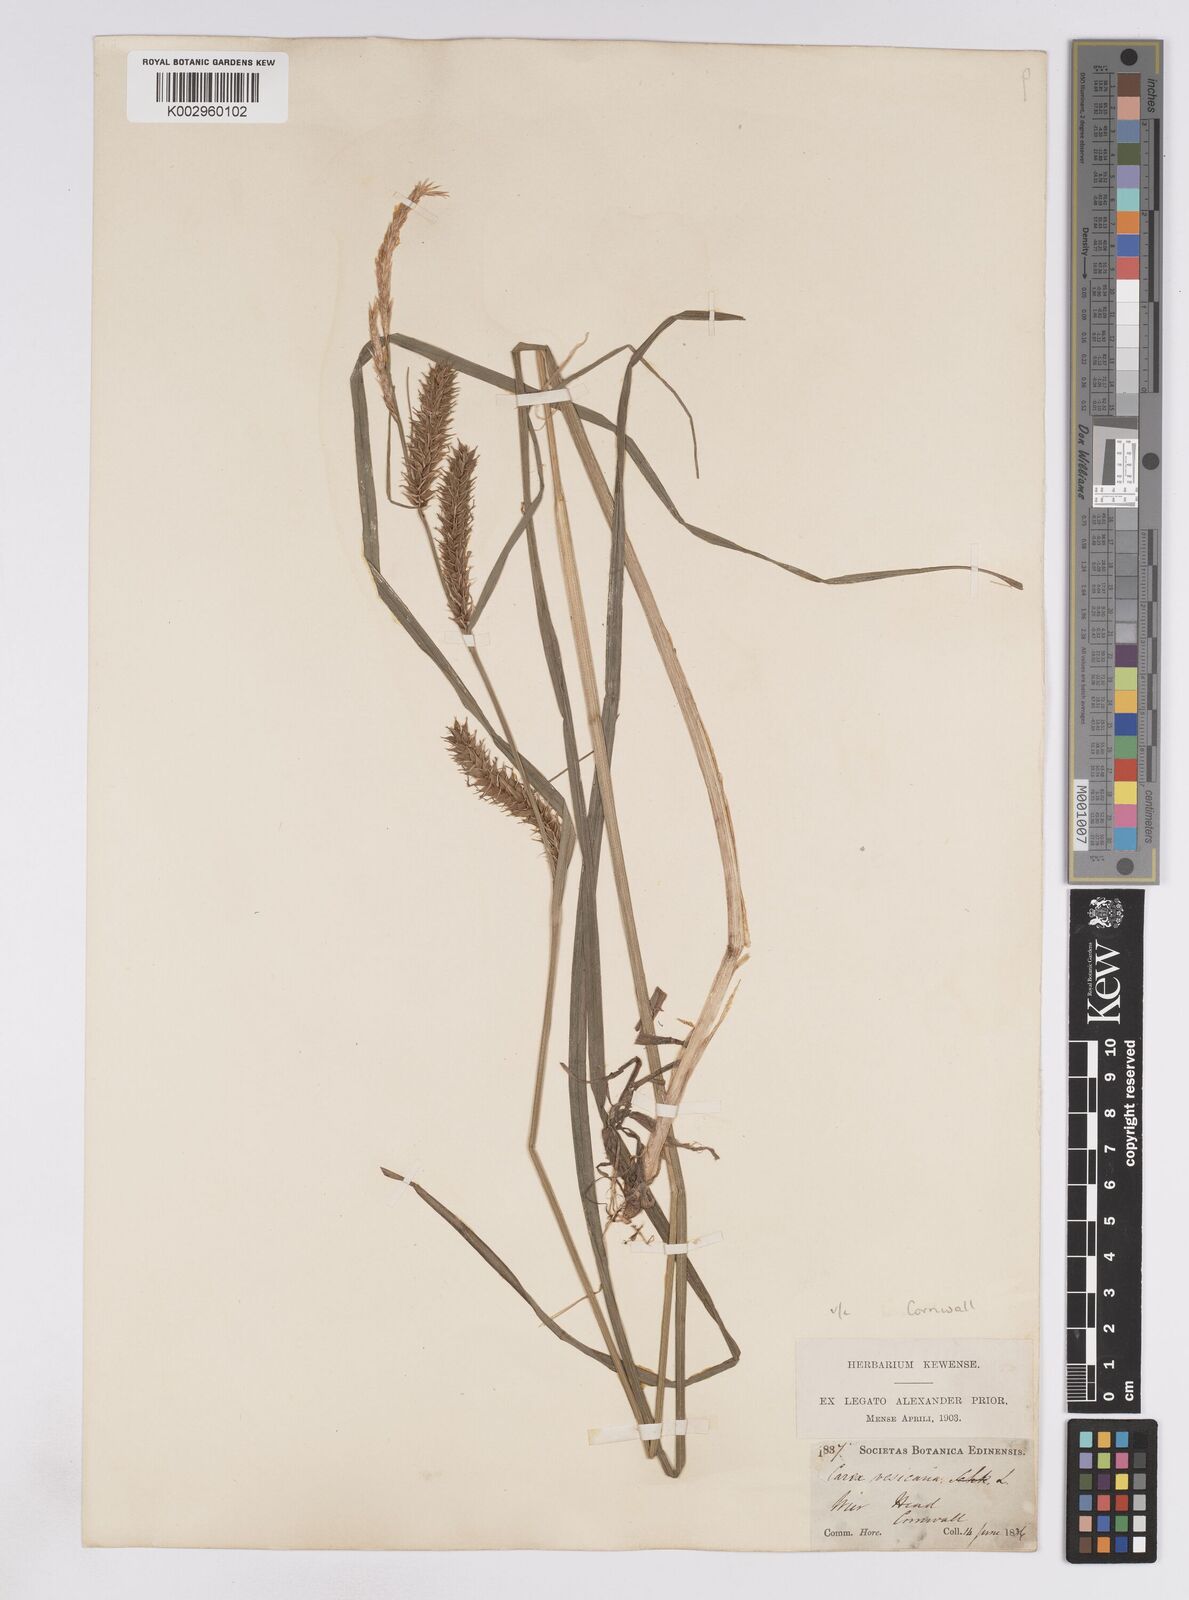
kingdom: Plantae
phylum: Tracheophyta
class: Liliopsida
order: Poales
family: Cyperaceae
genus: Carex
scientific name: Carex vesicaria
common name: Bladder-sedge
